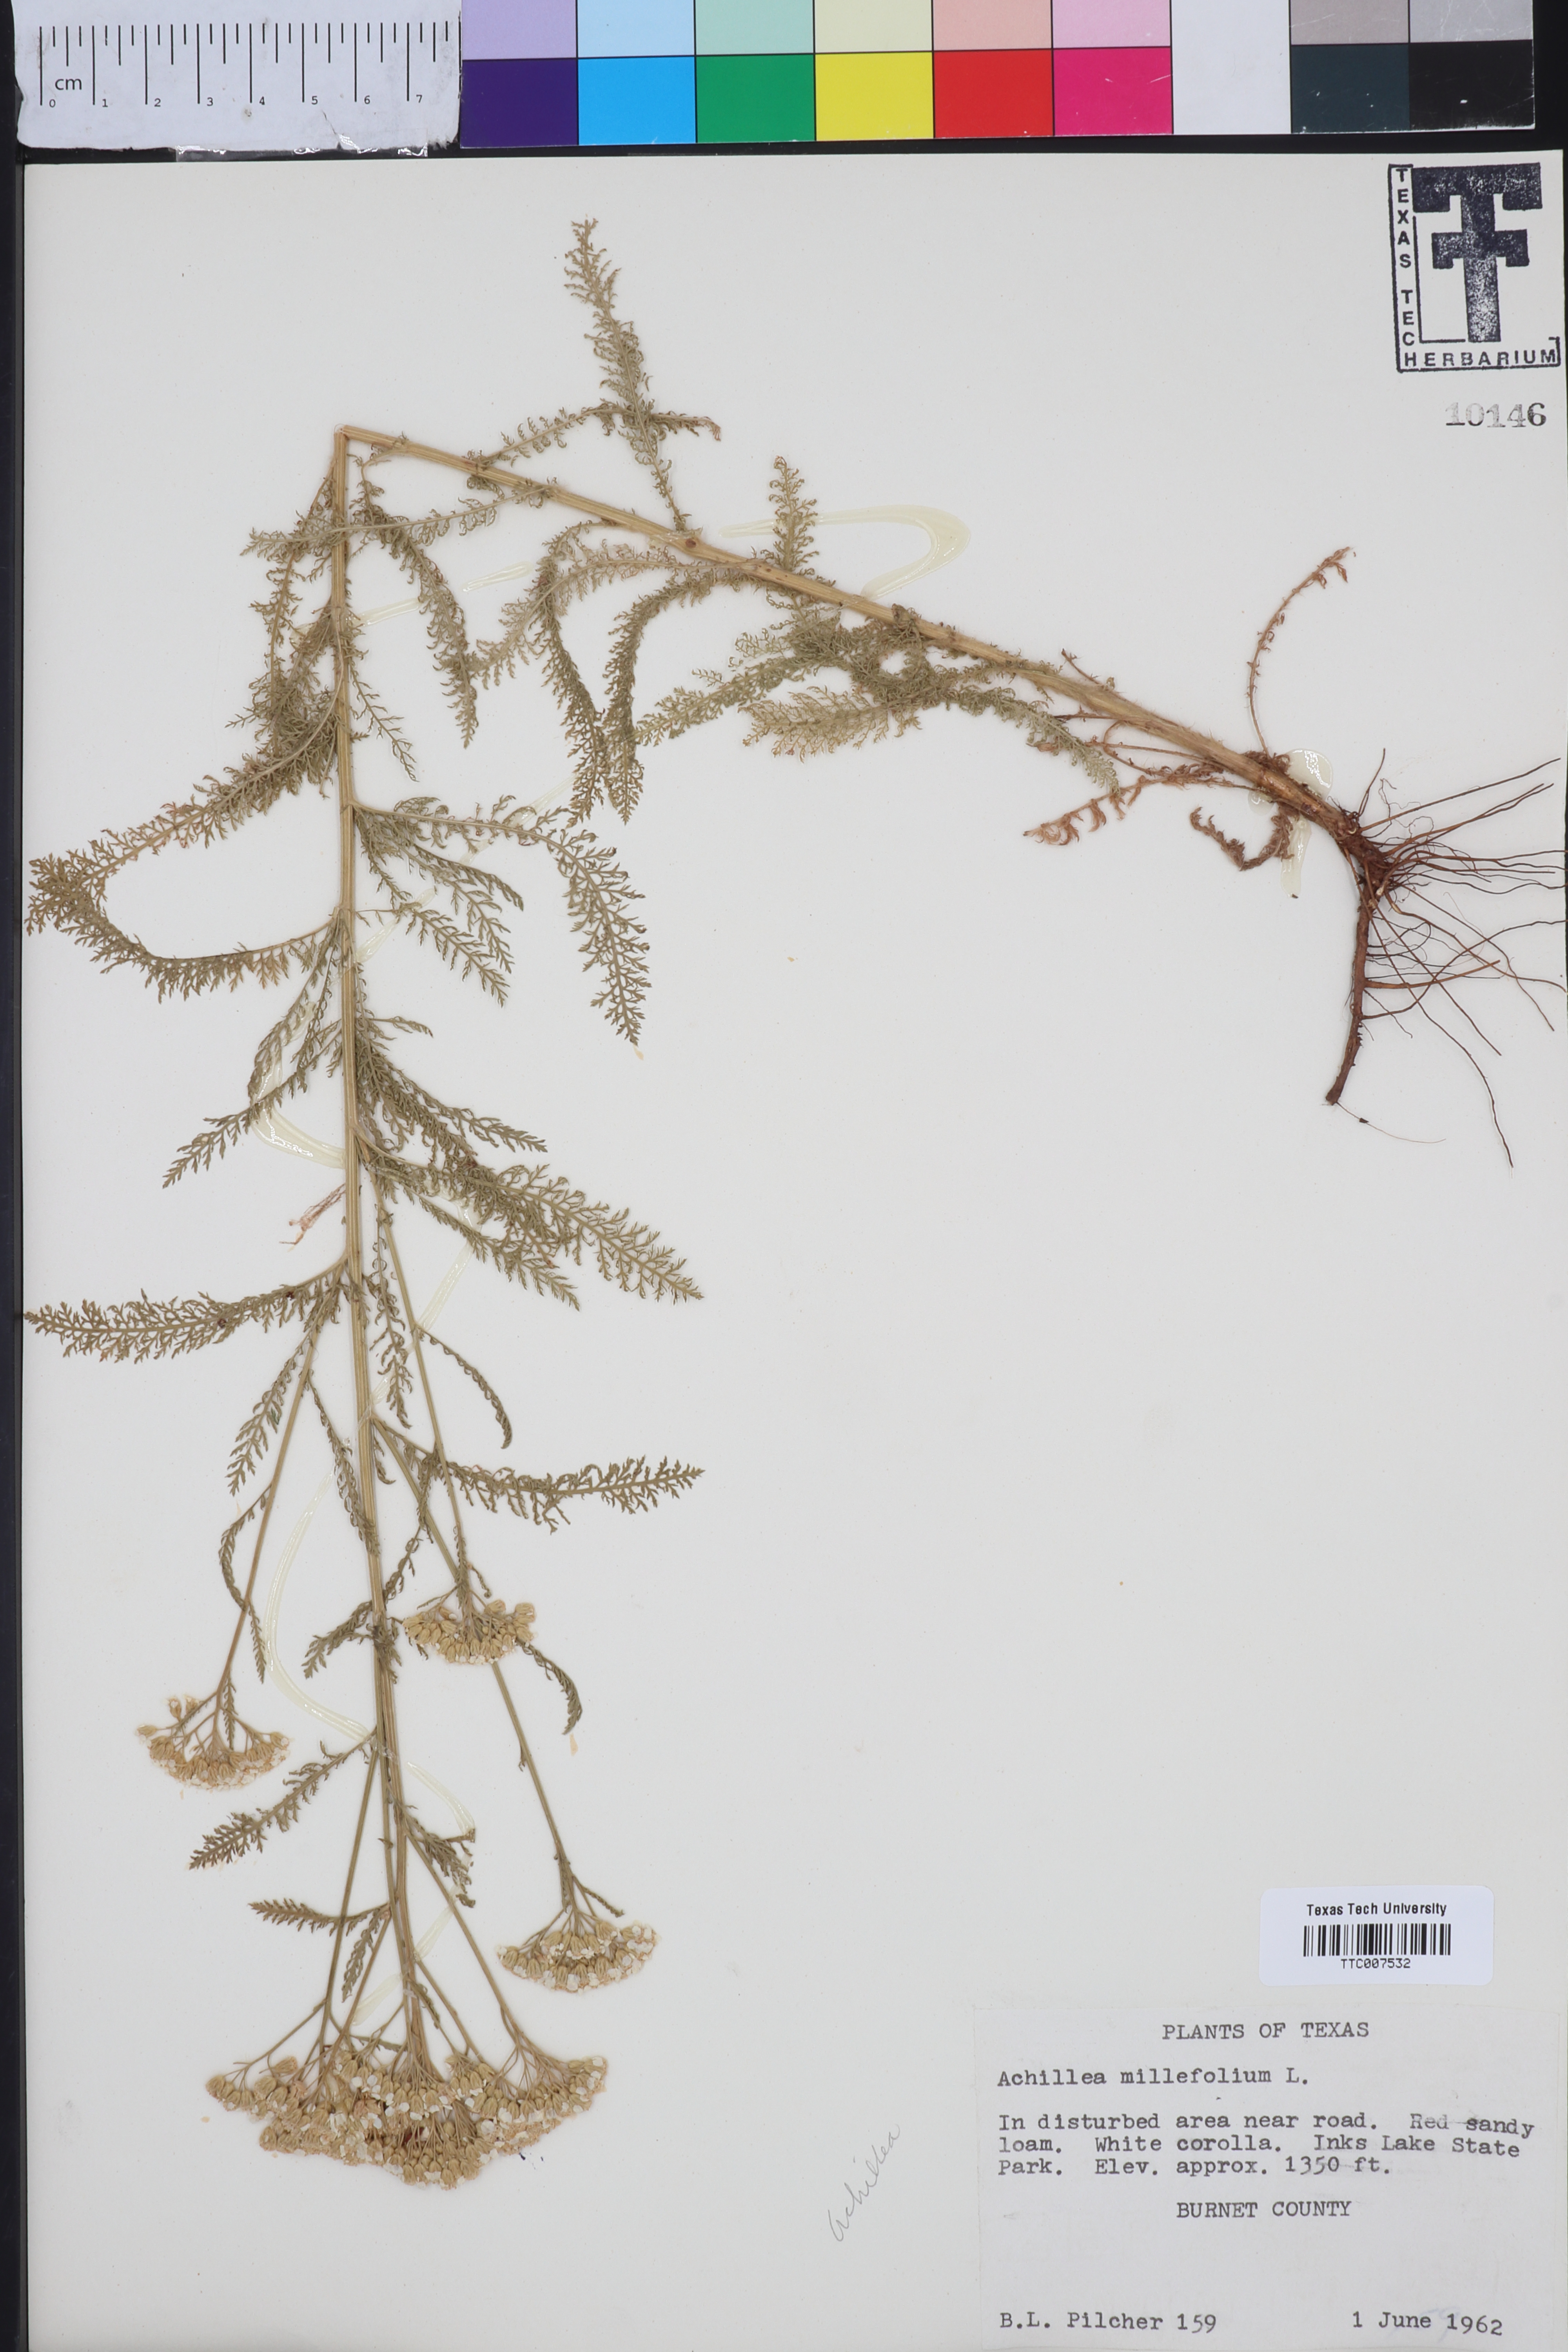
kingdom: Plantae
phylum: Tracheophyta
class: Magnoliopsida
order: Asterales
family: Asteraceae
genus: Achillea
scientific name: Achillea millefolium
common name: Yarrow
